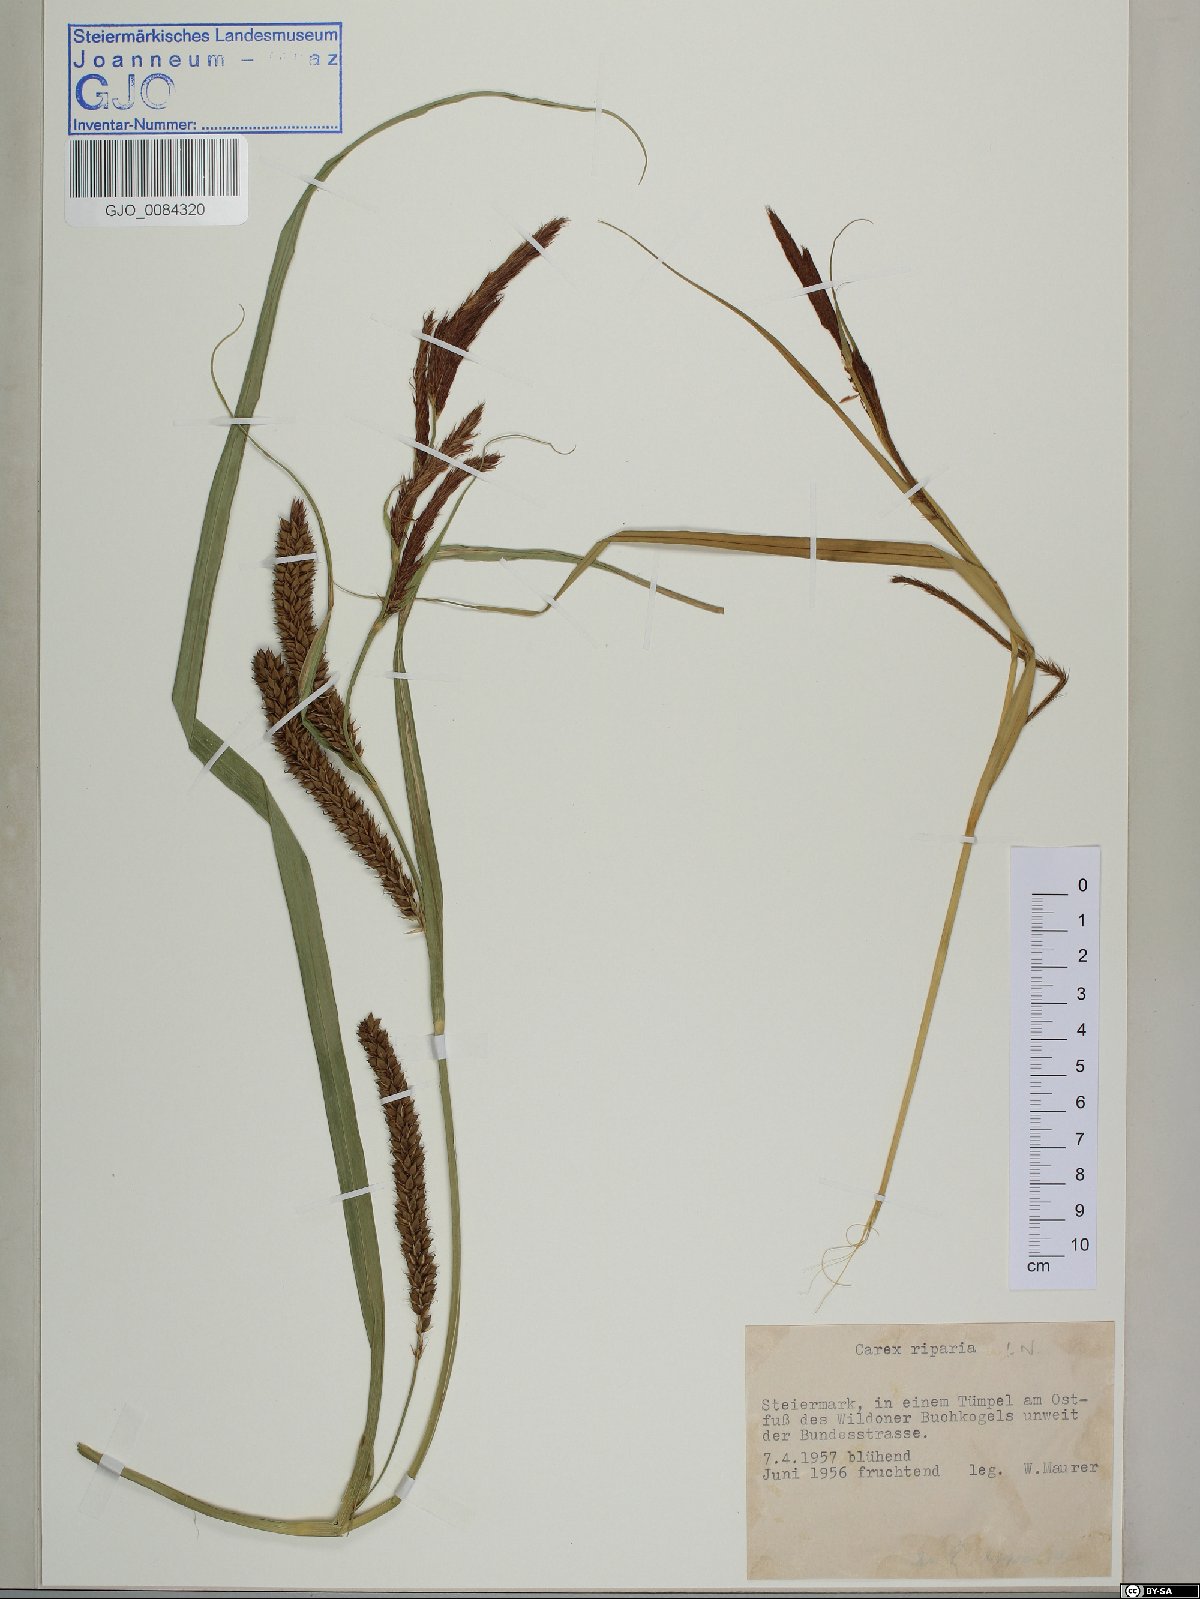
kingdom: Plantae
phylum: Tracheophyta
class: Liliopsida
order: Poales
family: Cyperaceae
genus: Carex
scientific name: Carex riparia
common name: Greater pond-sedge
